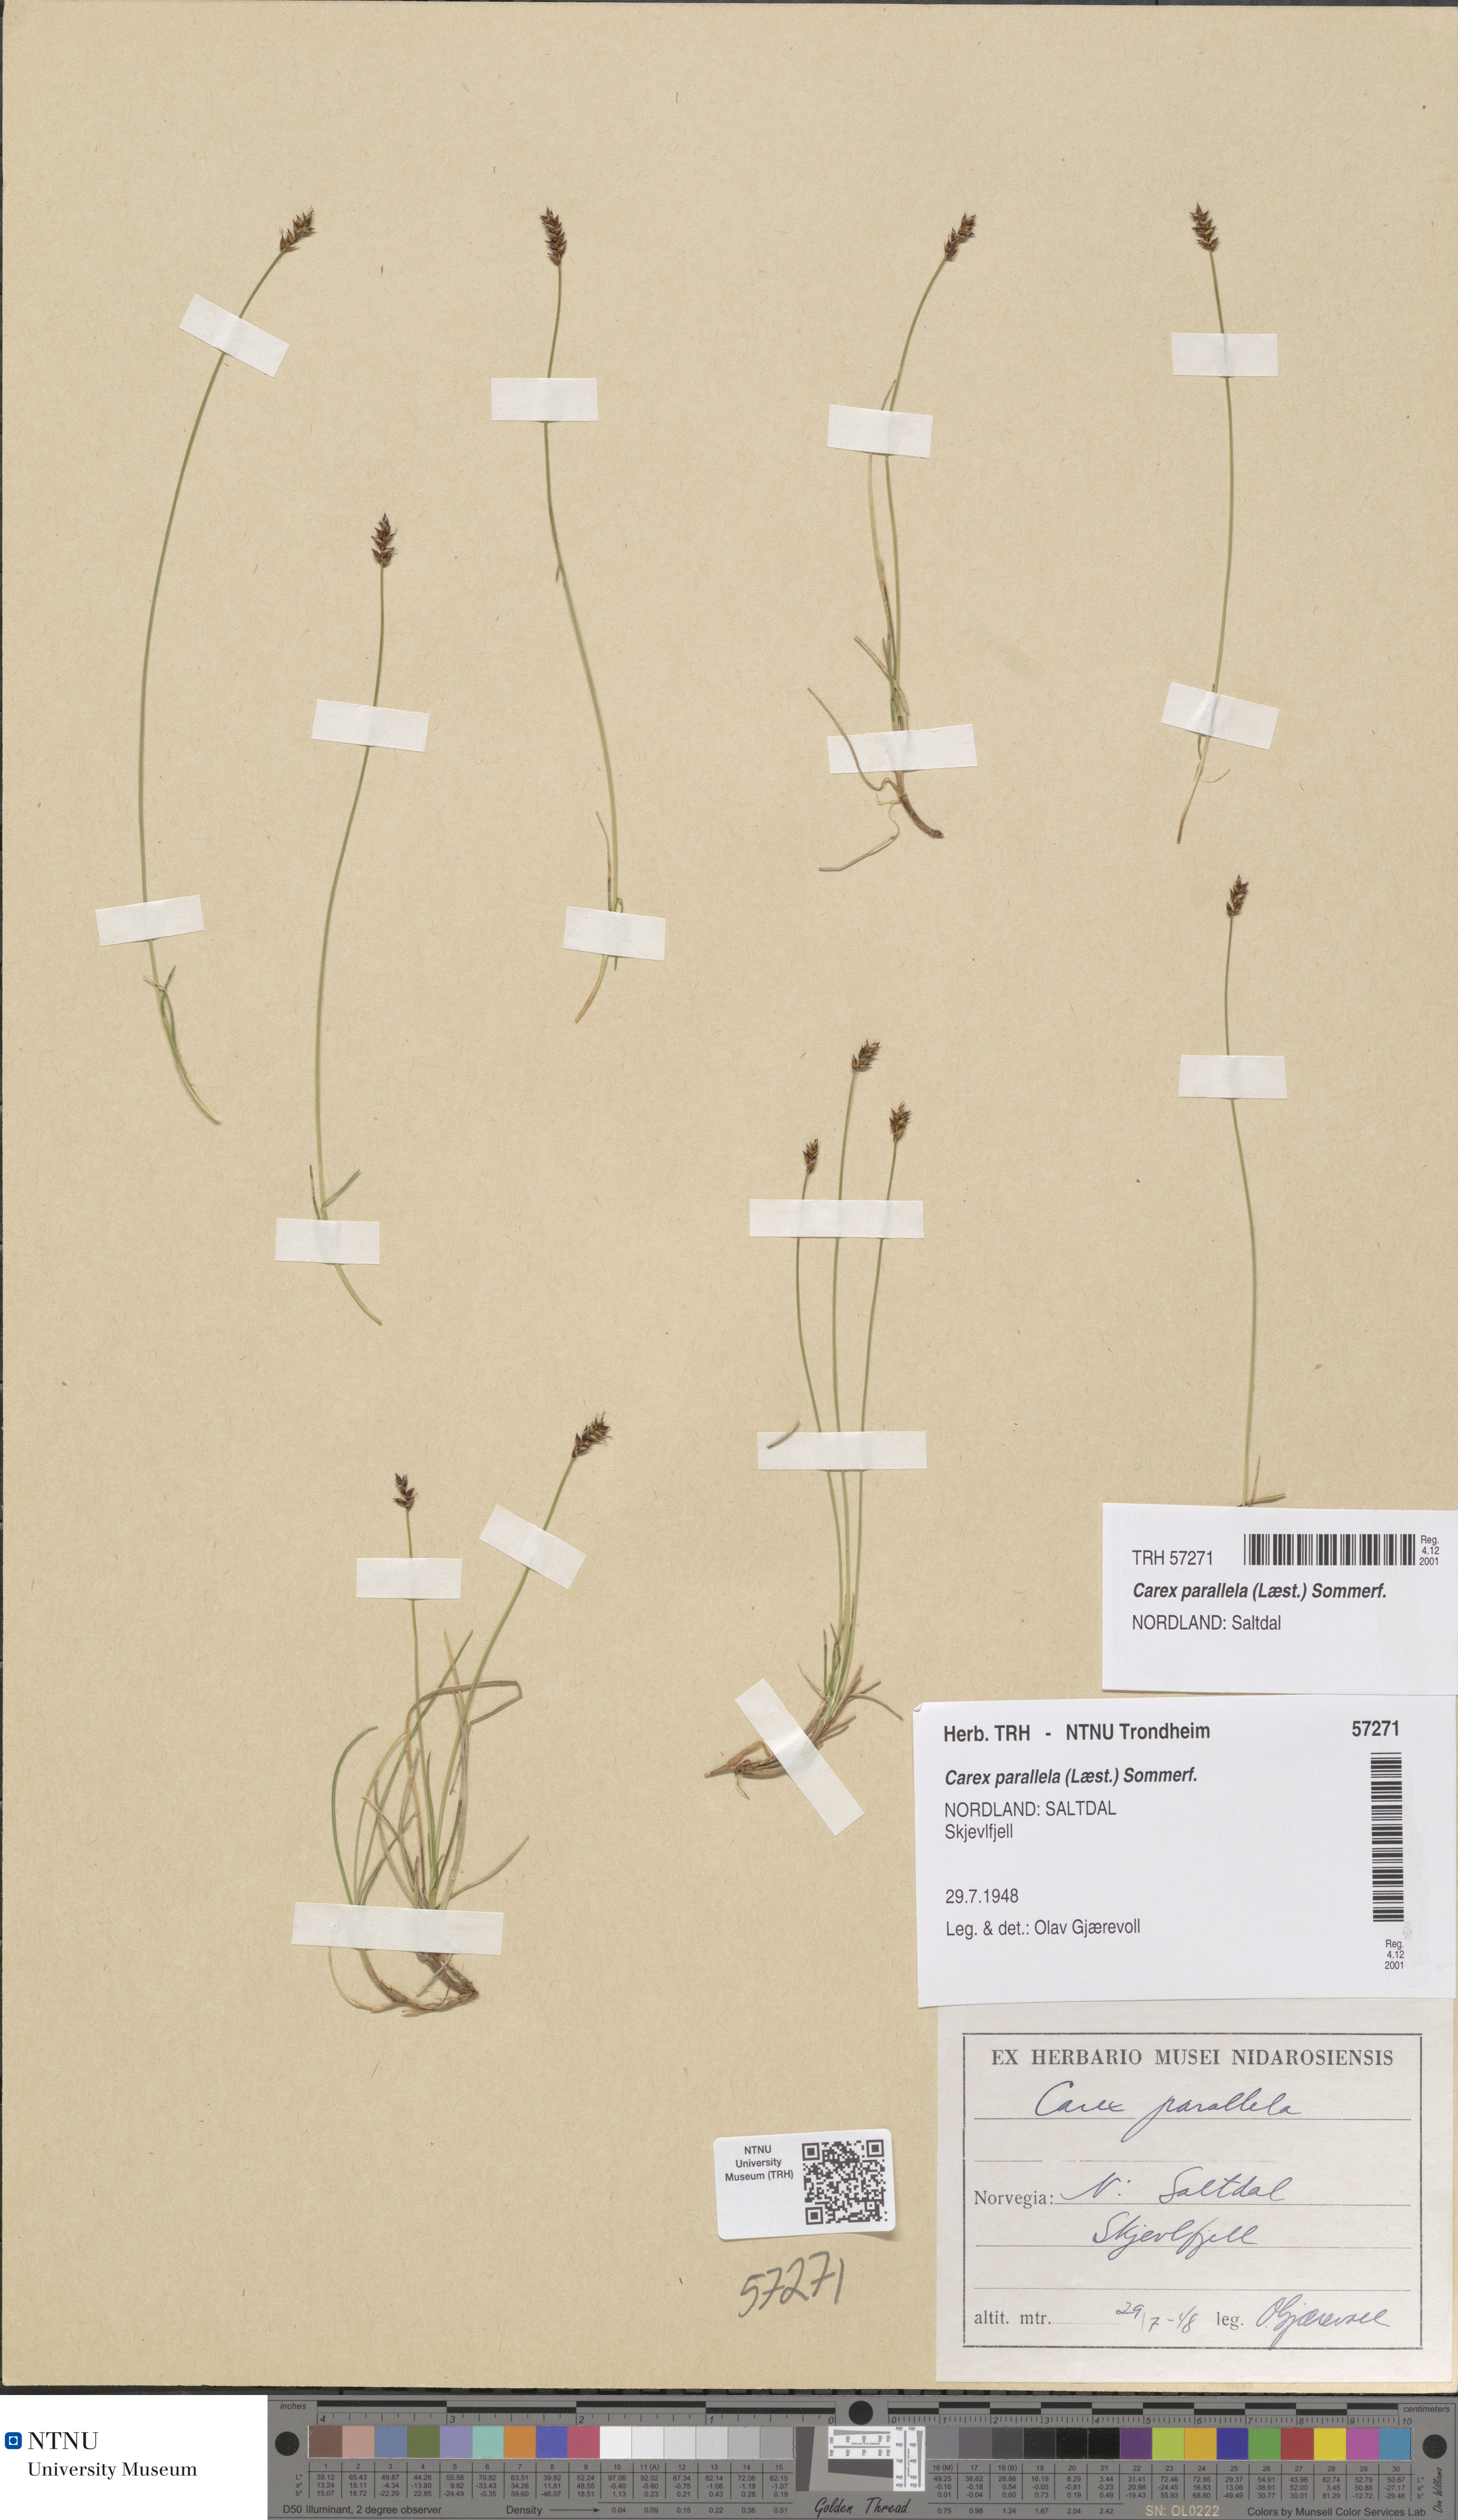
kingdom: Plantae
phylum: Tracheophyta
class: Liliopsida
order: Poales
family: Cyperaceae
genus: Carex
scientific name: Carex parallela
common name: Parallel sedge
